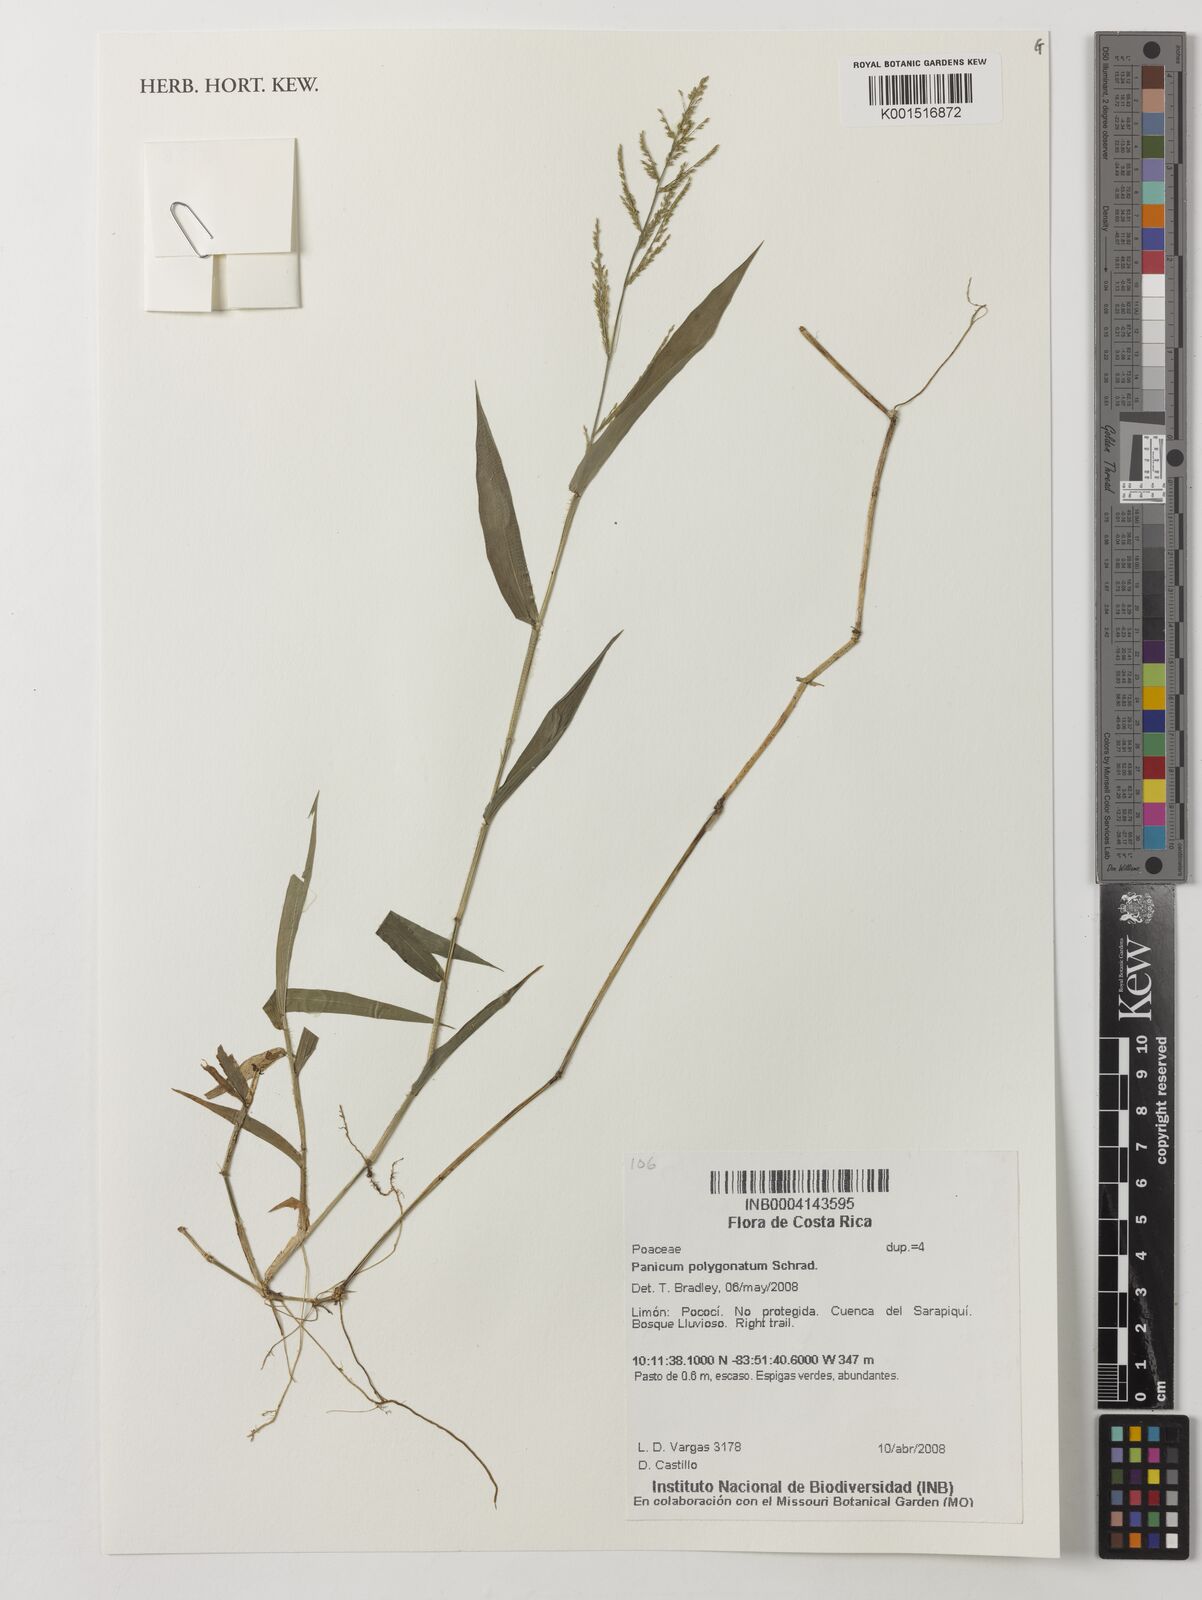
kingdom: Plantae
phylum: Tracheophyta
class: Liliopsida
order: Poales
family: Poaceae
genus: Rugoloa
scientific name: Rugoloa polygonata
